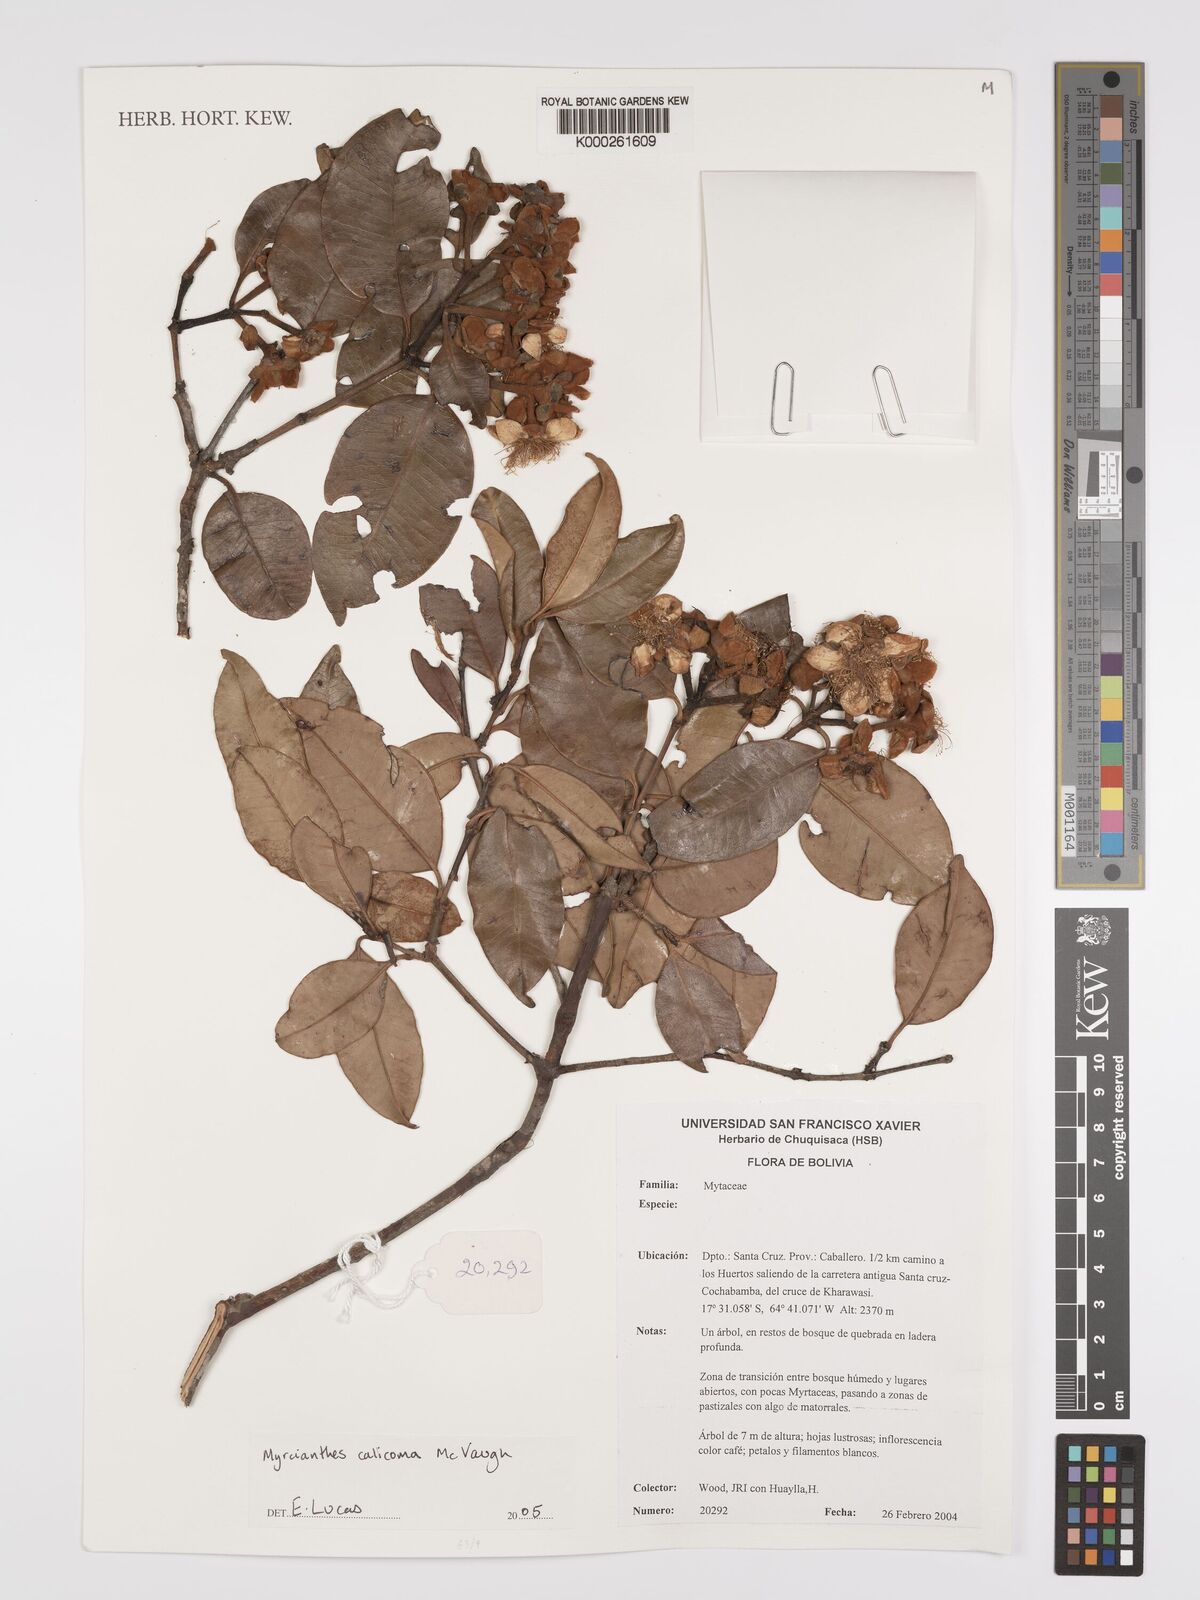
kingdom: Plantae
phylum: Tracheophyta
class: Magnoliopsida
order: Myrtales
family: Myrtaceae
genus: Myrcianthes
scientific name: Myrcianthes callicoma
